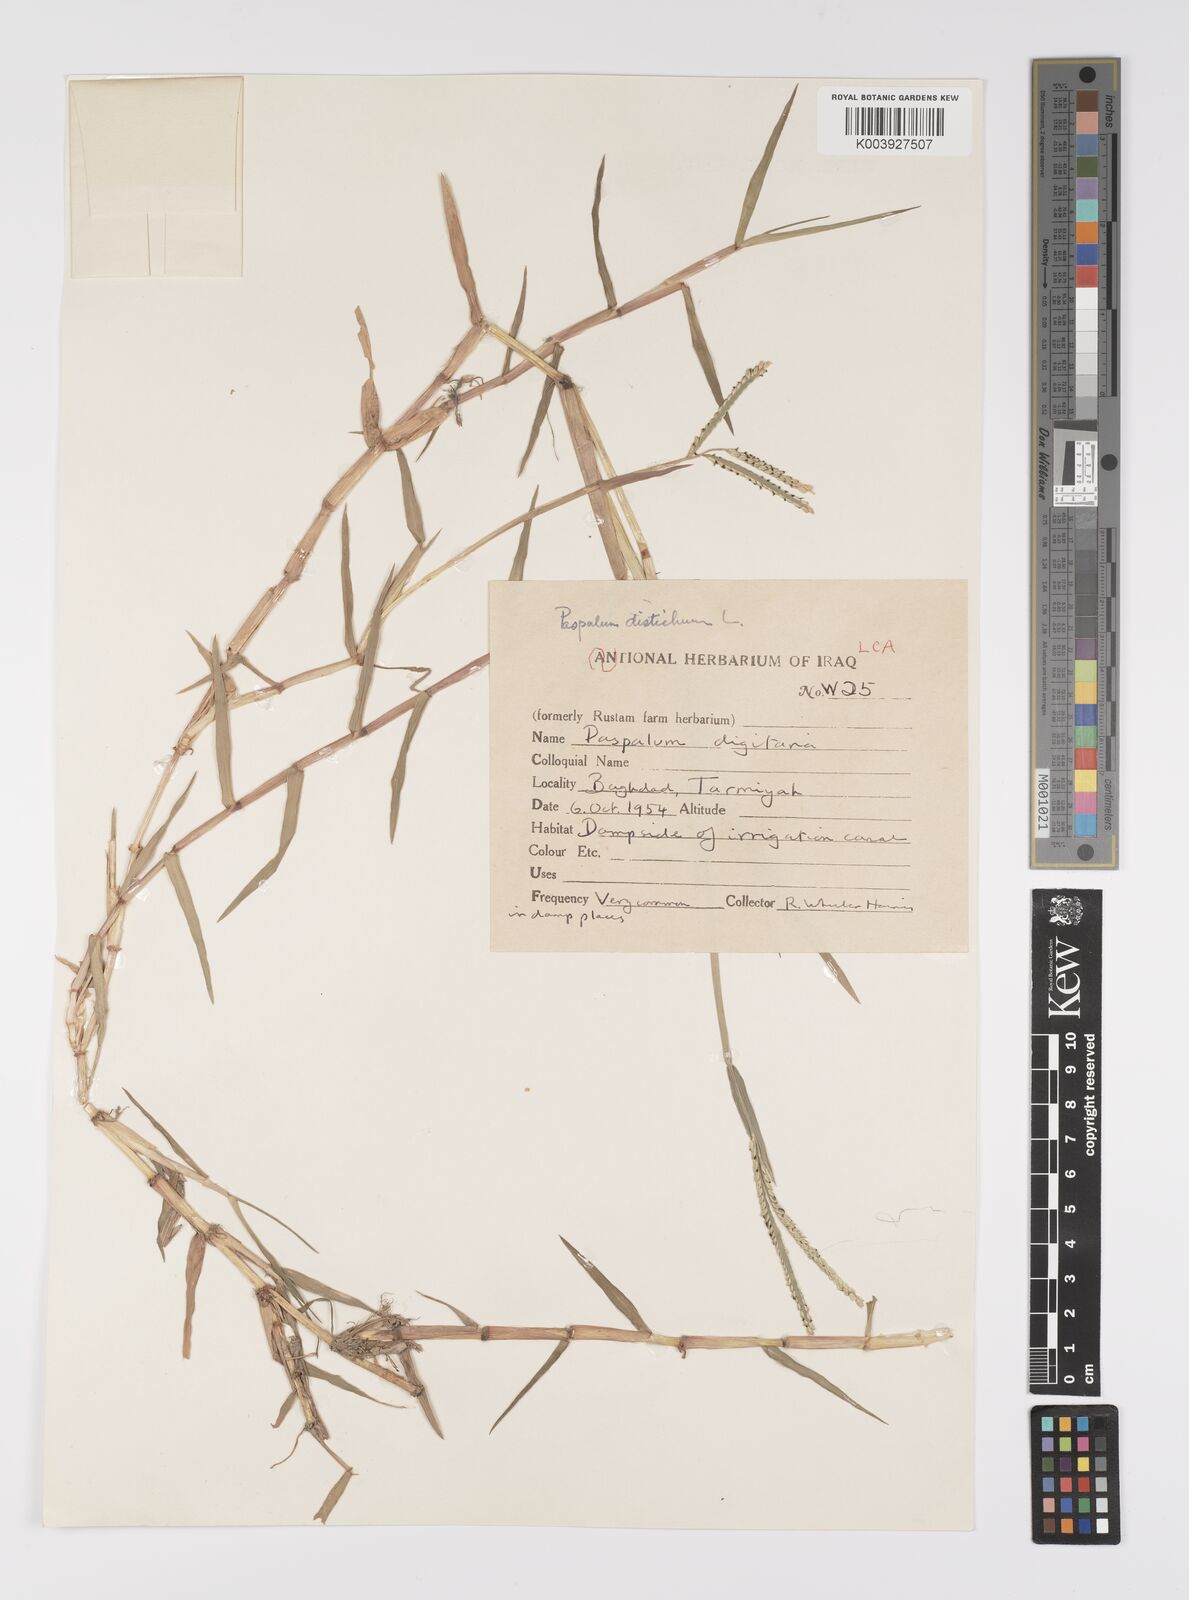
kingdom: Plantae
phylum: Tracheophyta
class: Liliopsida
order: Poales
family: Poaceae
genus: Paspalum
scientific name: Paspalum distichum
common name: Knotgrass
